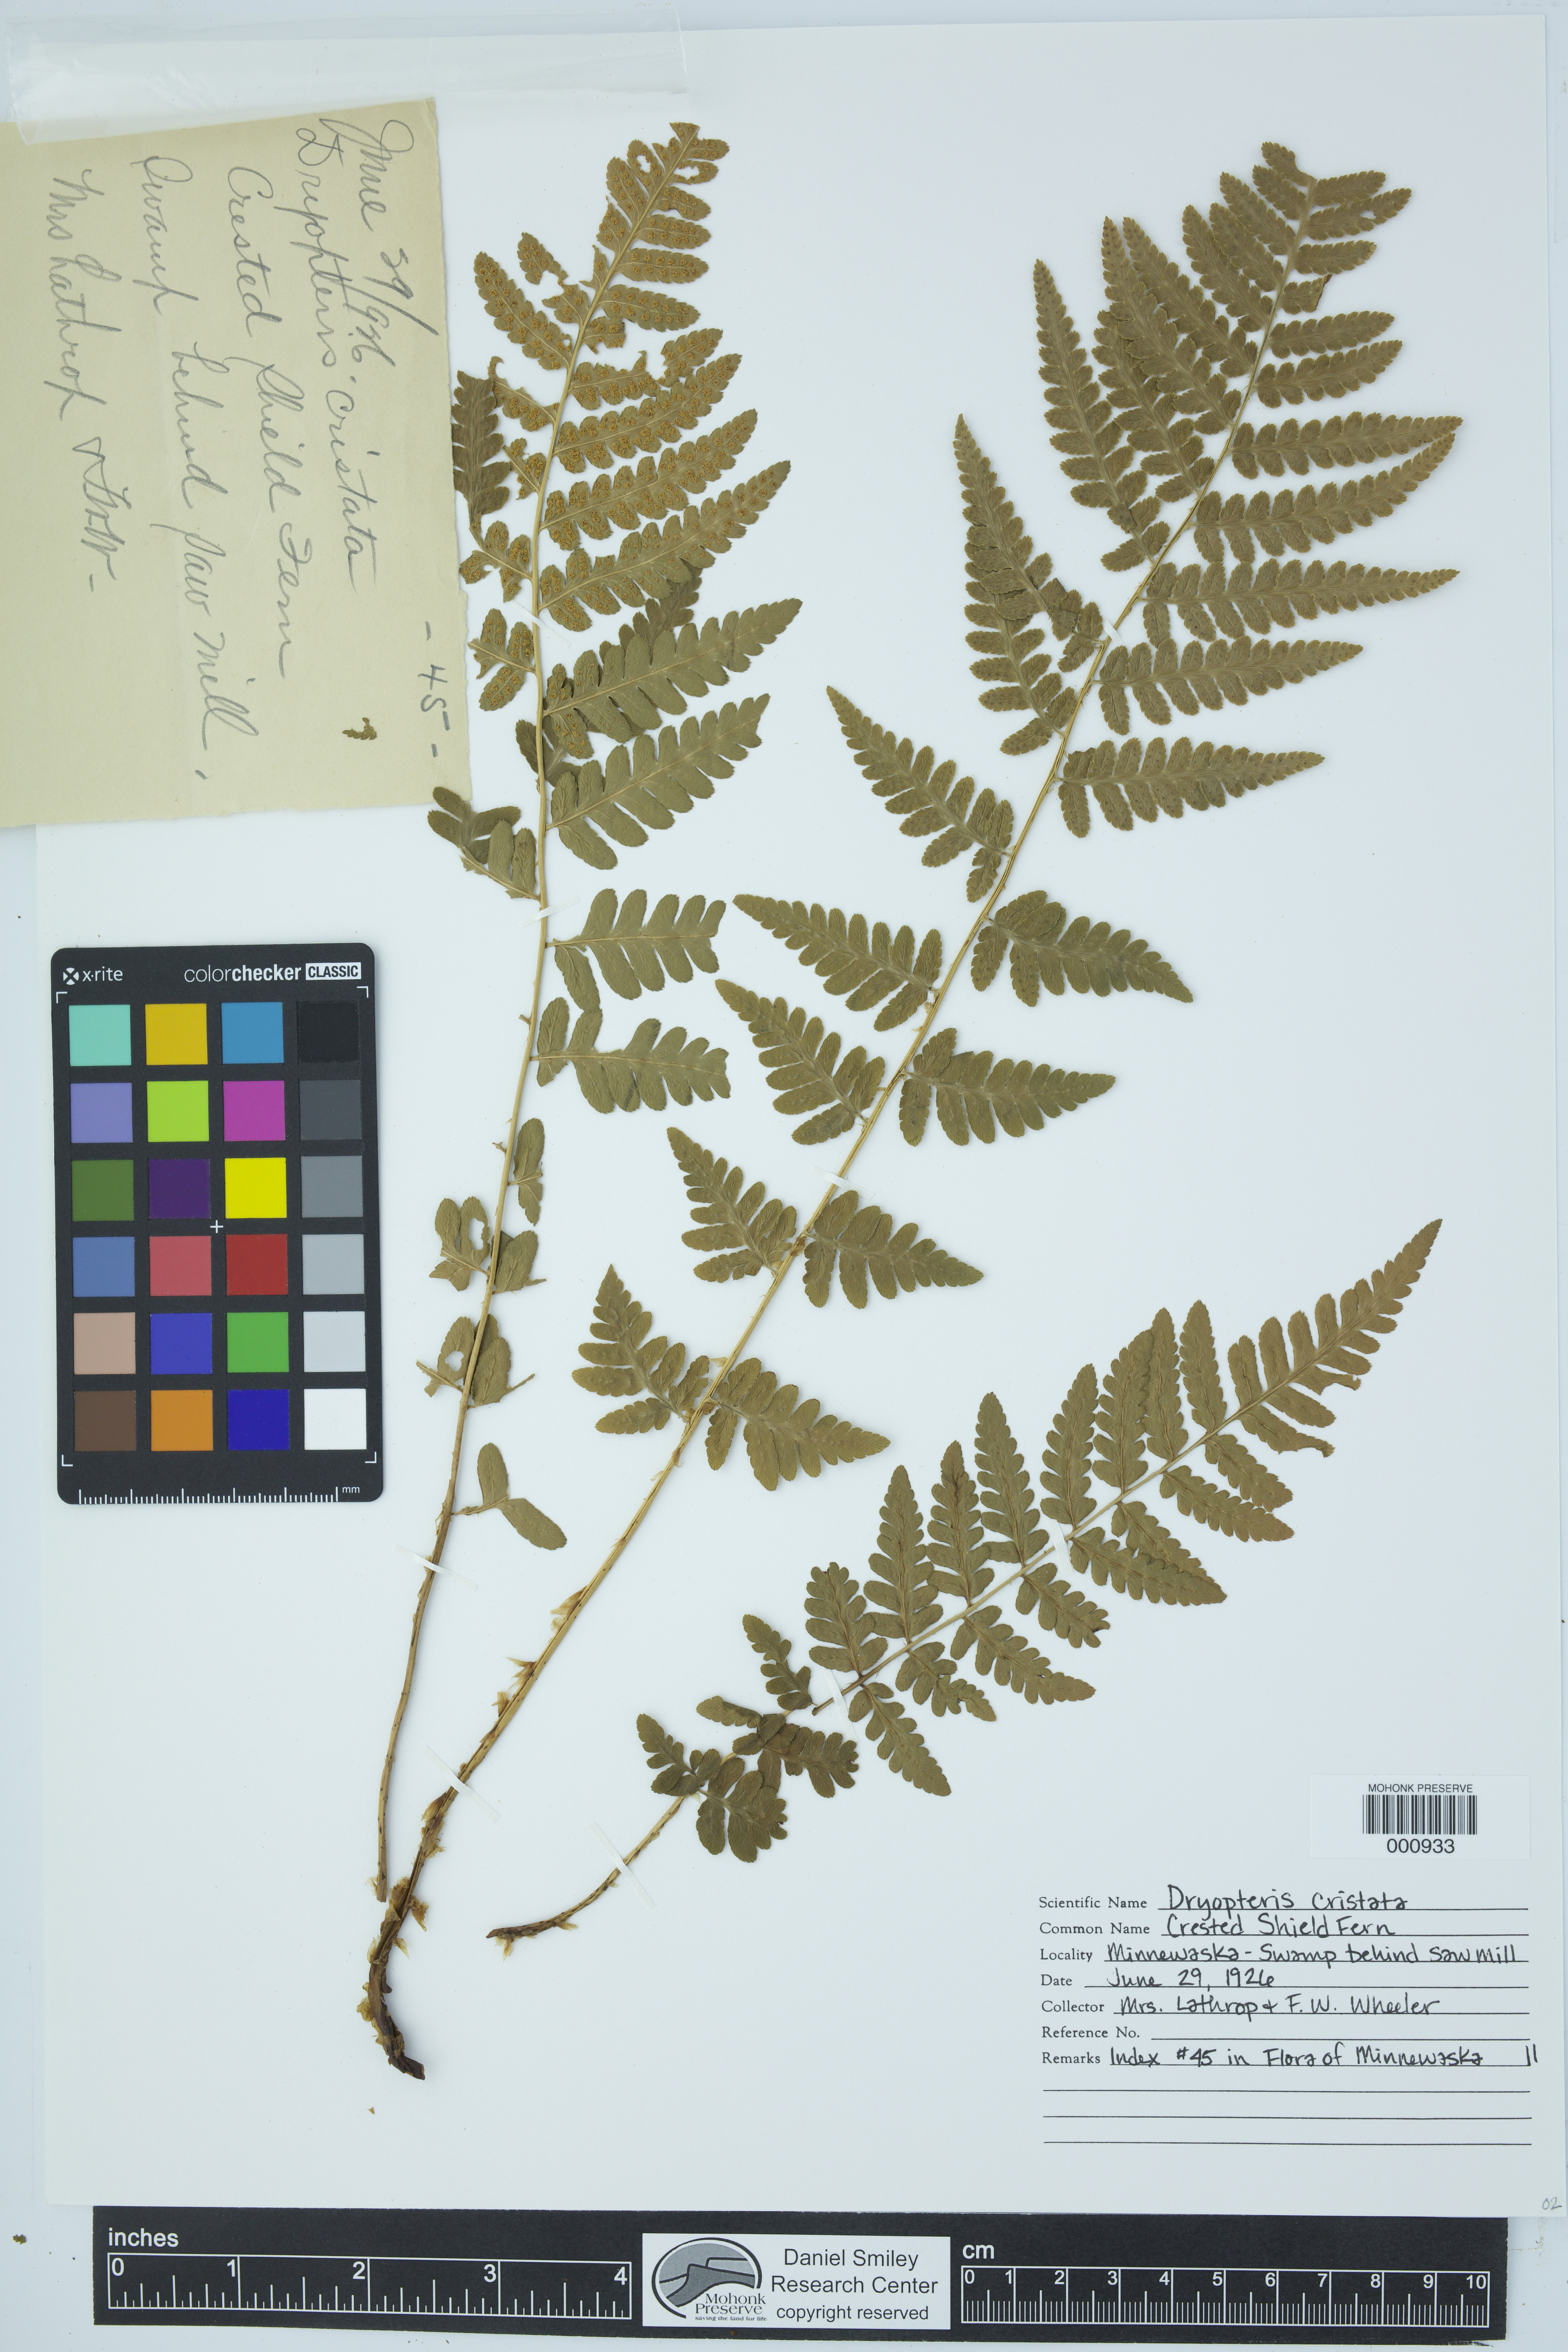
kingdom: Plantae
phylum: Tracheophyta
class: Polypodiopsida
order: Polypodiales
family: Dryopteridaceae
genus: Dryopteris
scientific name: Dryopteris cristata
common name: Crested wood fern
